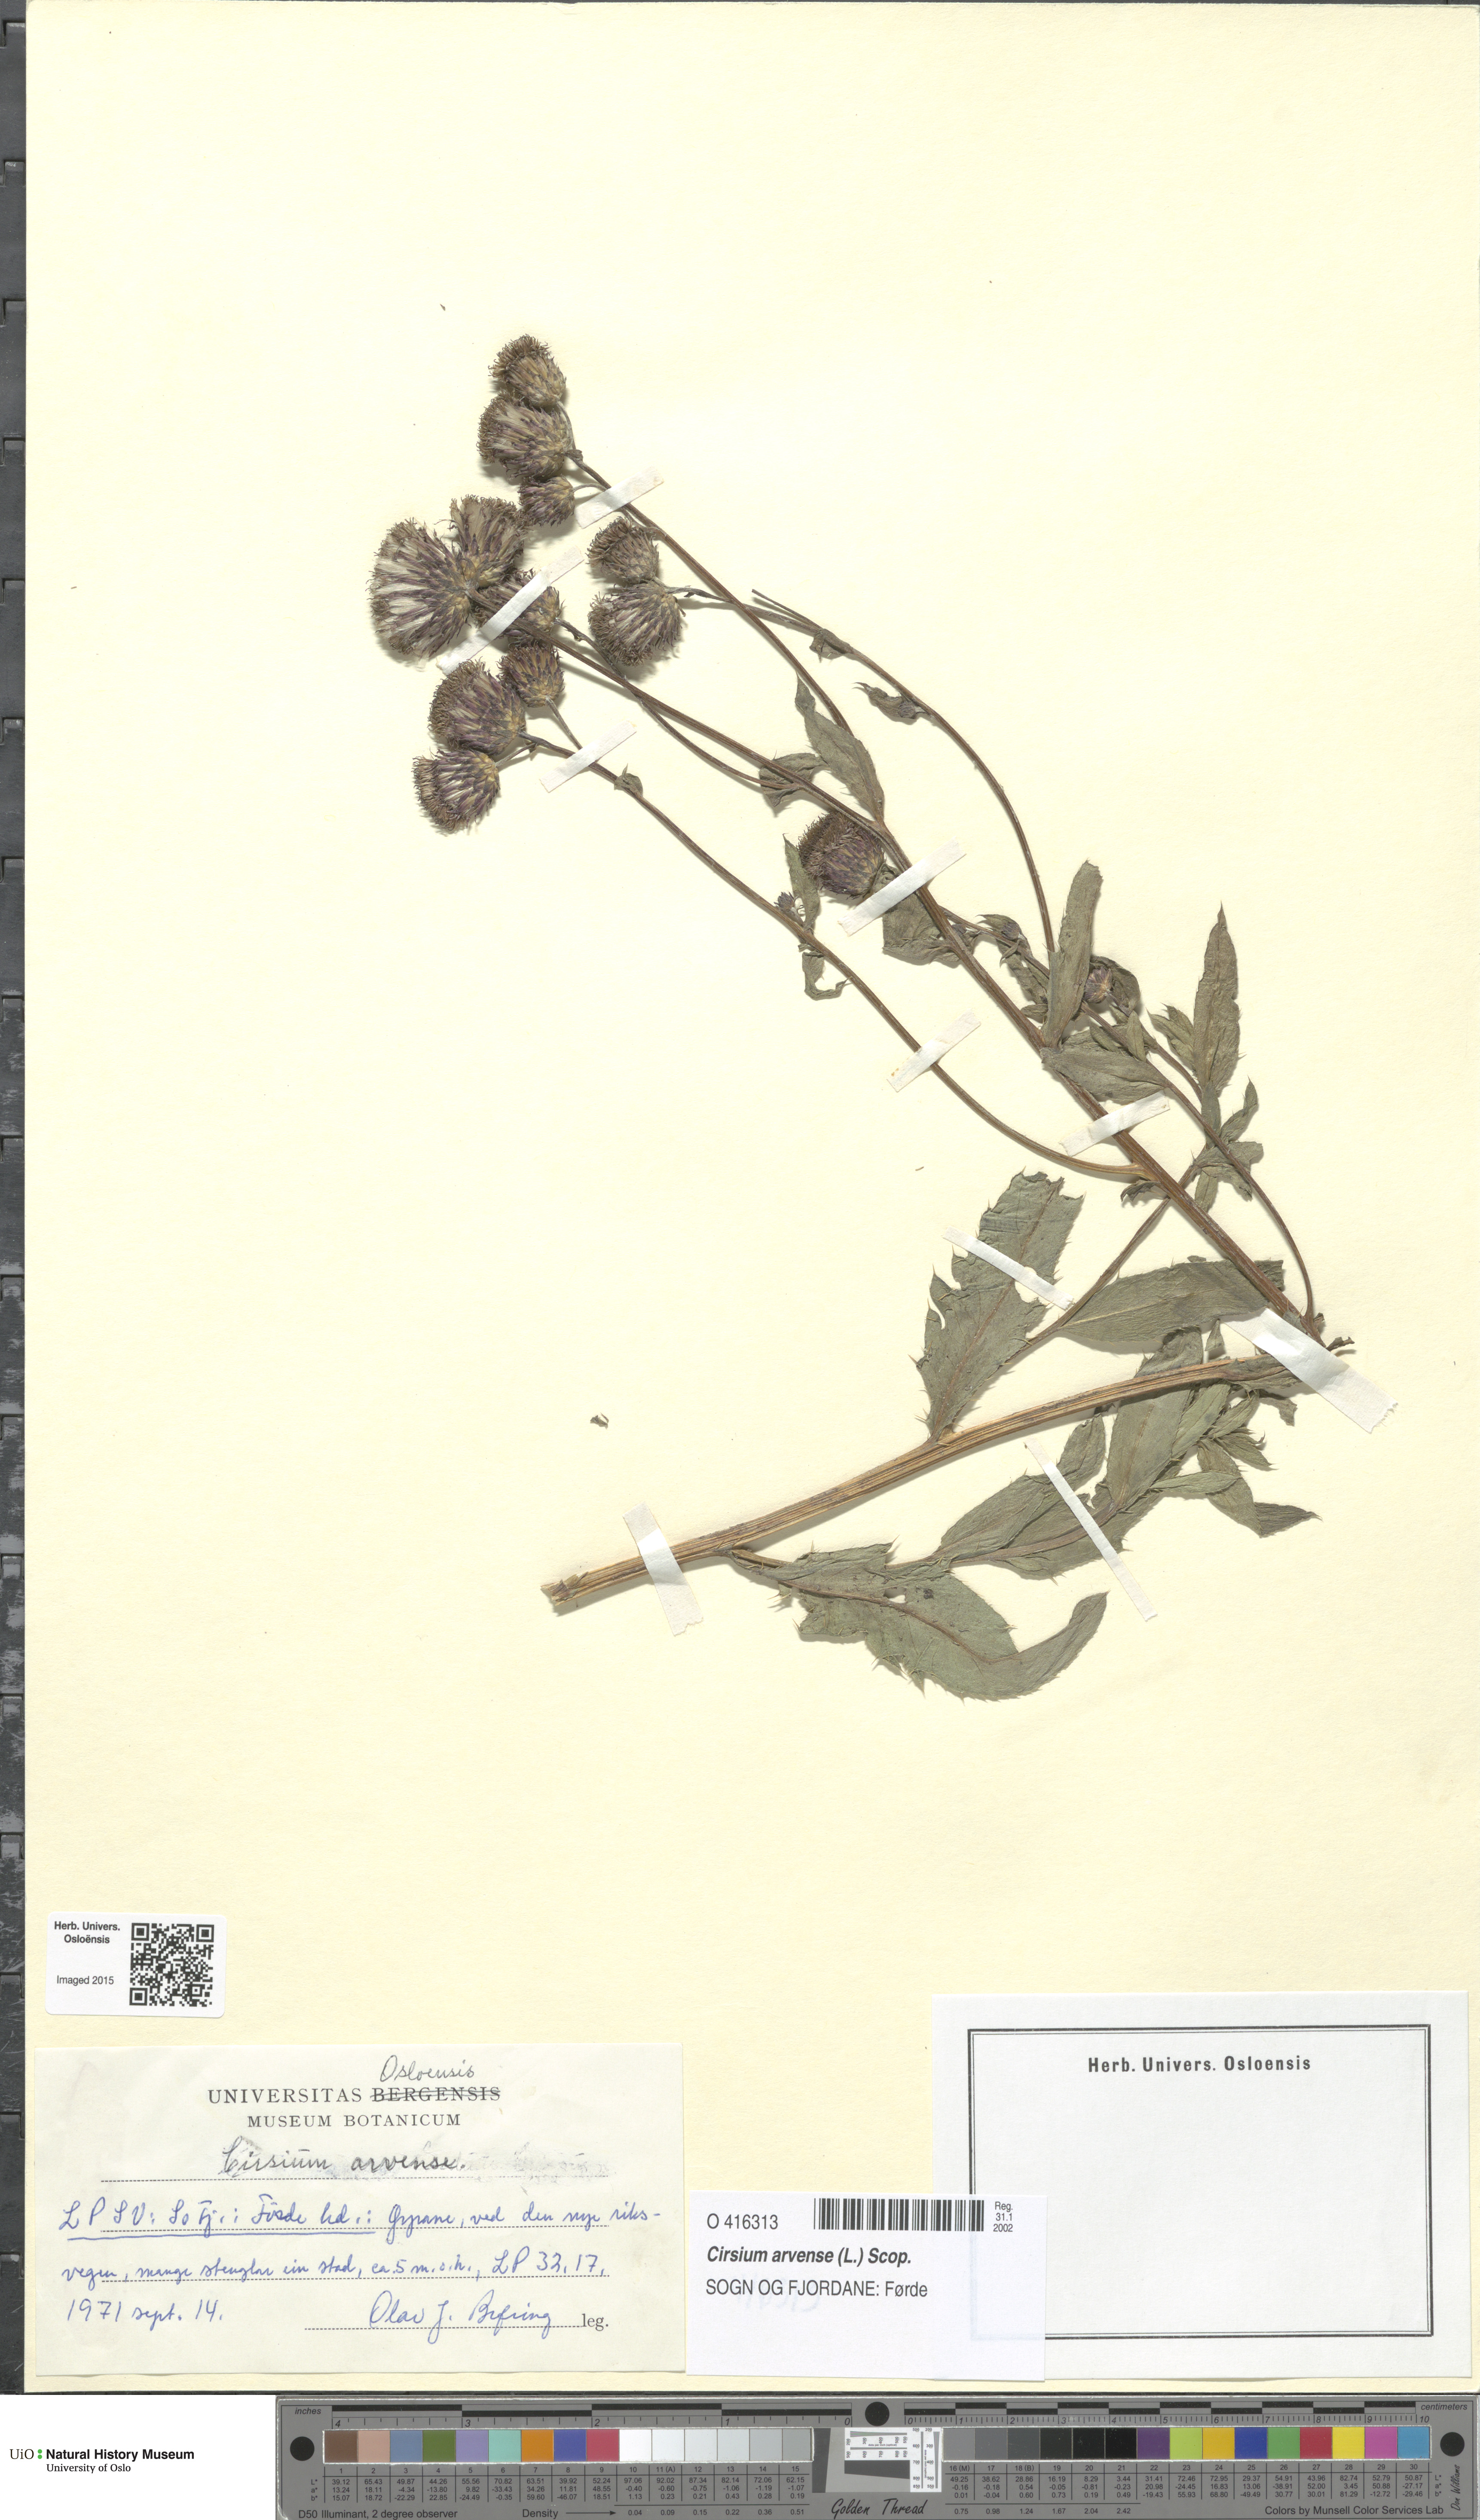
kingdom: Plantae
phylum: Tracheophyta
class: Magnoliopsida
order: Asterales
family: Asteraceae
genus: Cirsium
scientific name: Cirsium arvense
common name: Creeping thistle
